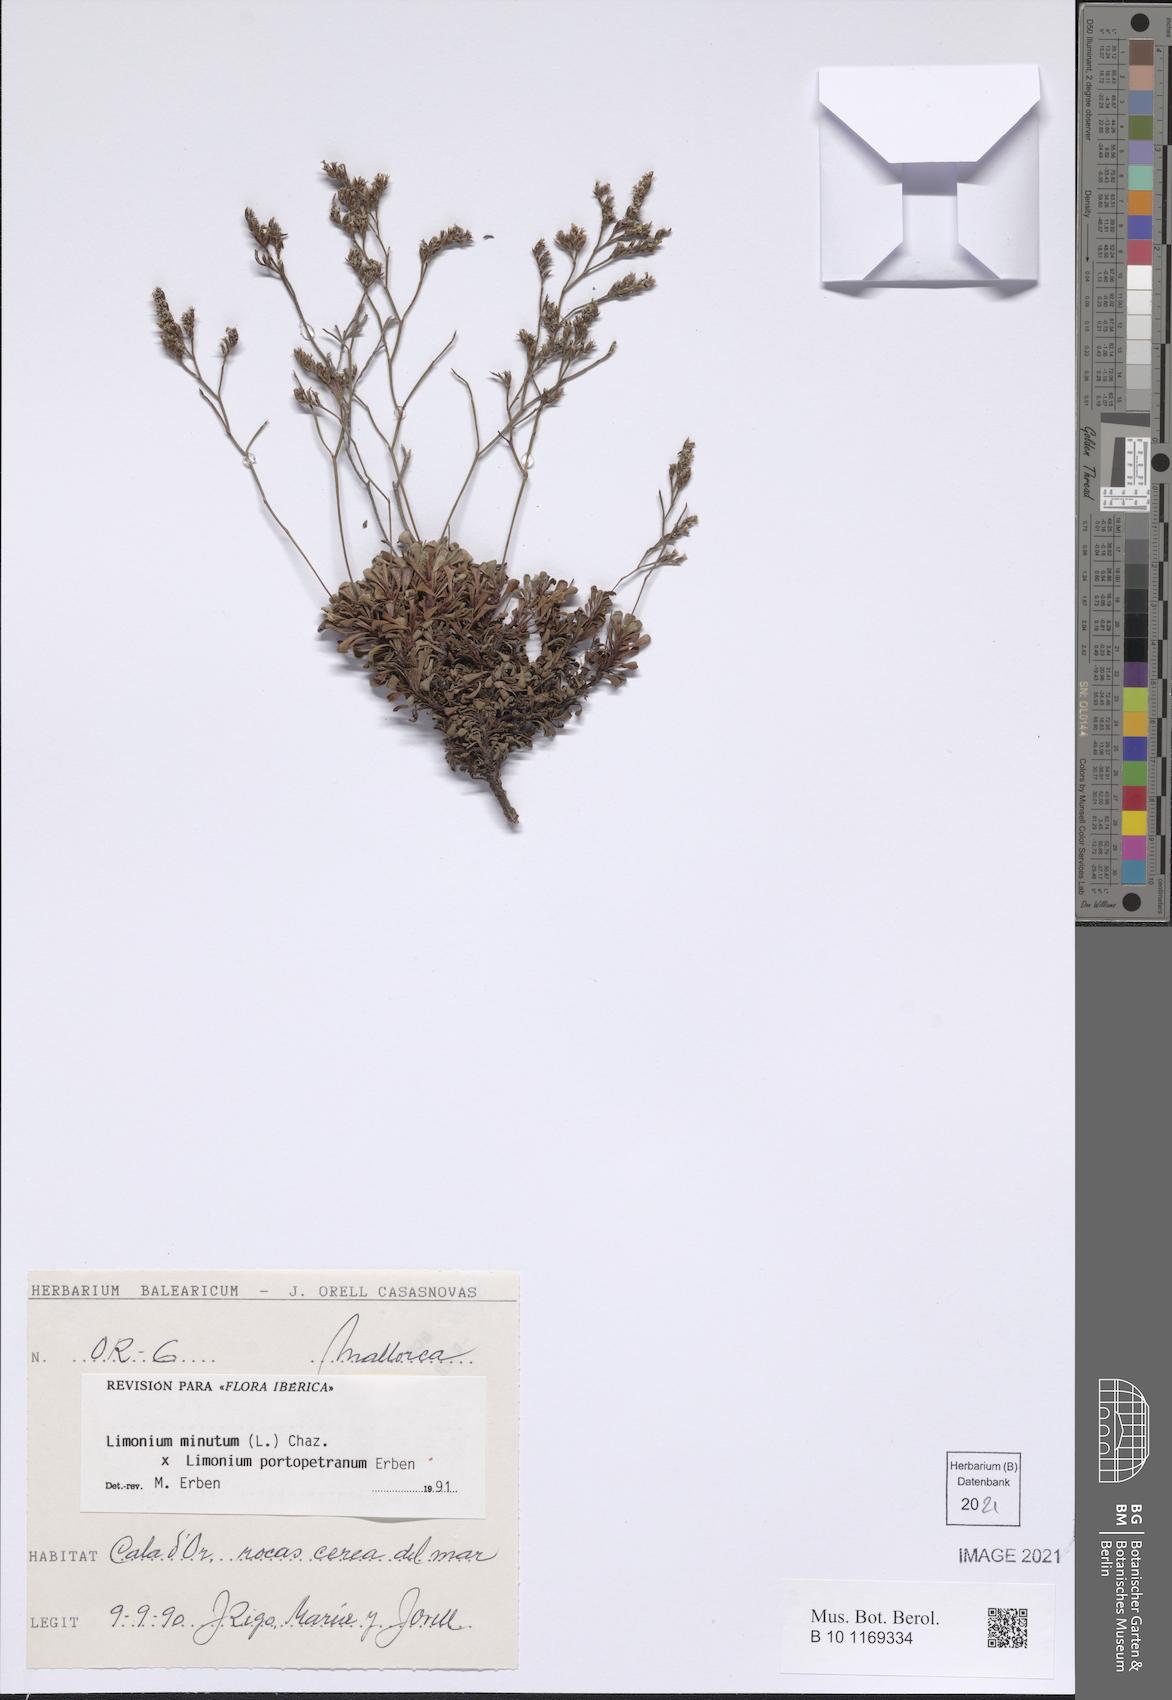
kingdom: Plantae
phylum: Tracheophyta
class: Magnoliopsida
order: Caryophyllales
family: Plumbaginaceae
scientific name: Plumbaginaceae
